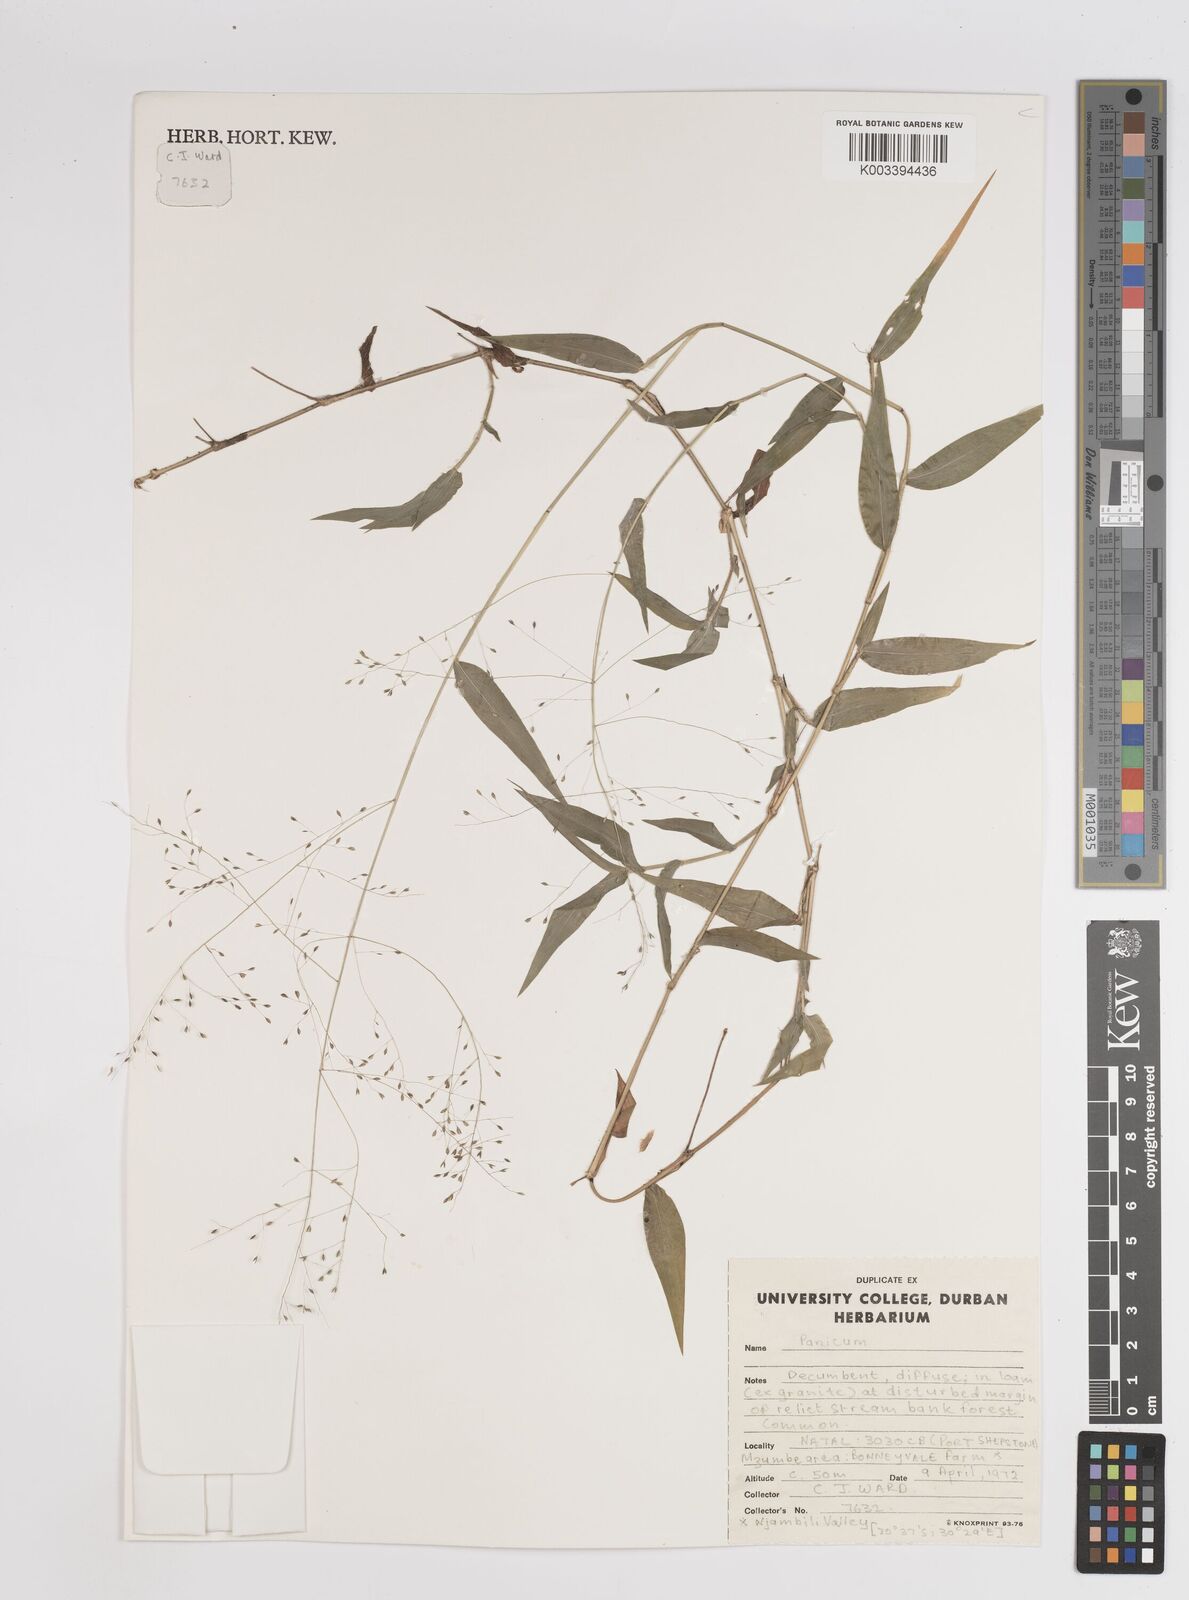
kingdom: Plantae
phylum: Tracheophyta
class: Liliopsida
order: Poales
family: Poaceae
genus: Panicum
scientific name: Panicum
